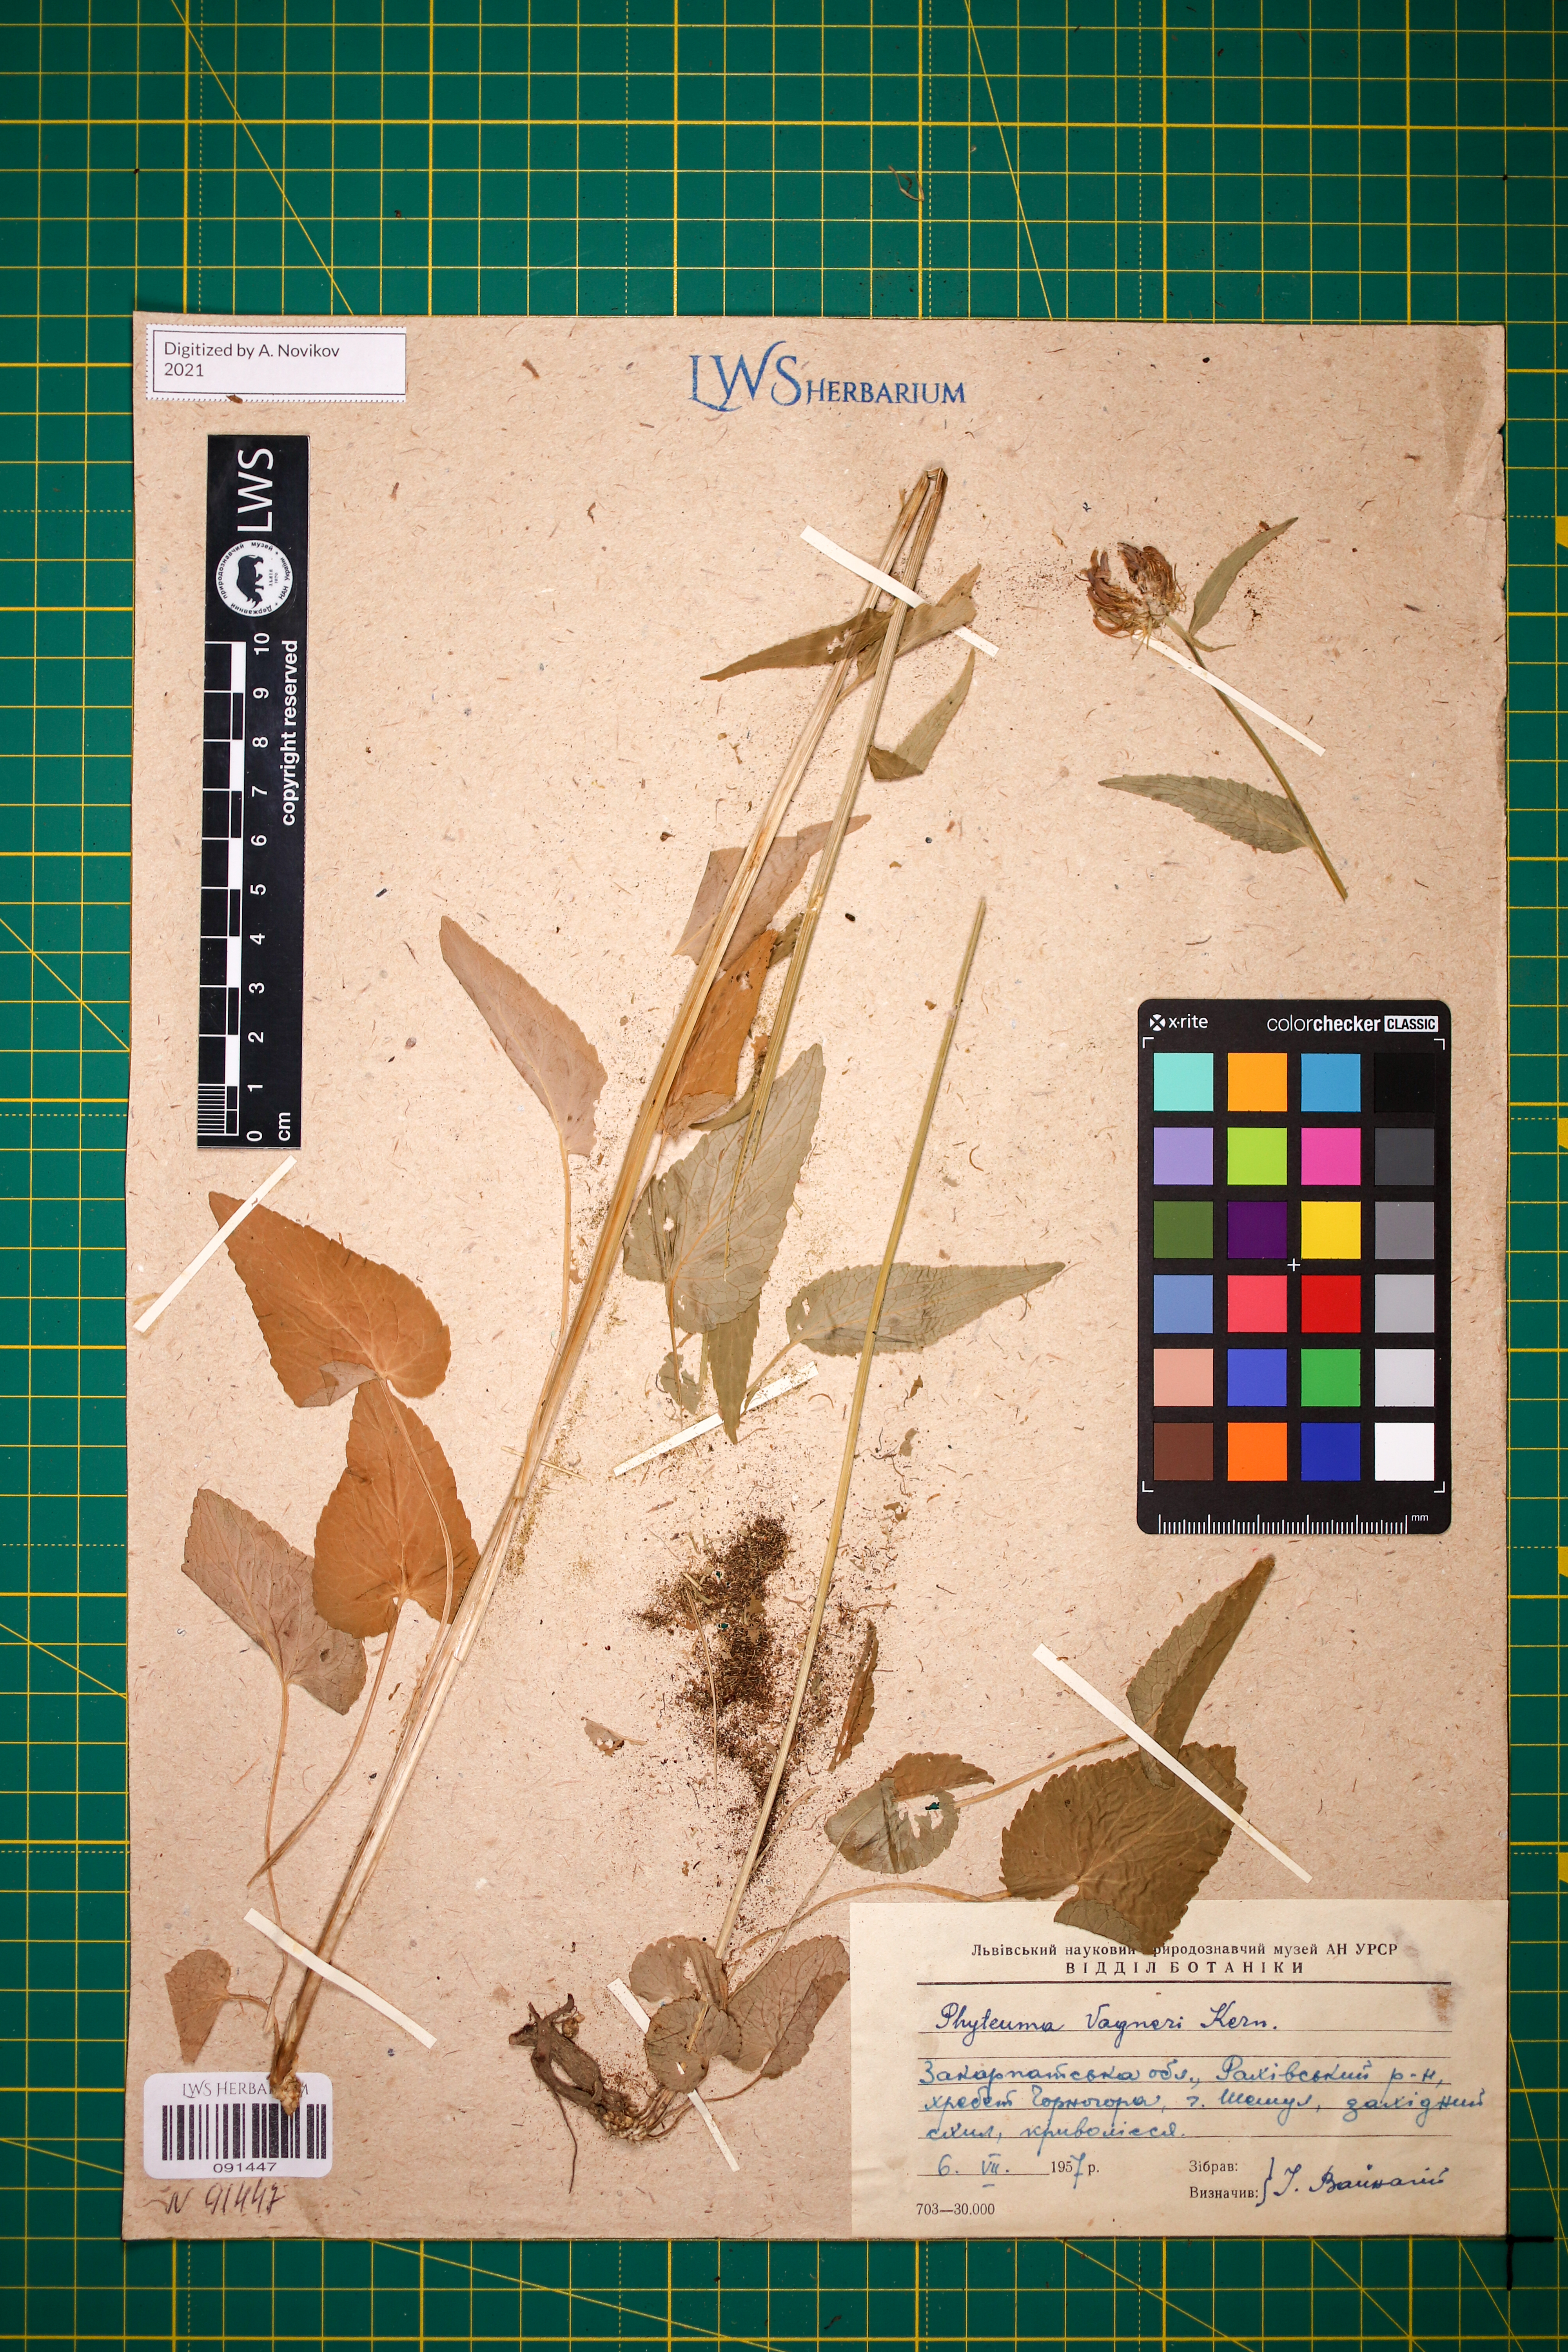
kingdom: Plantae
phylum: Tracheophyta
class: Magnoliopsida
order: Asterales
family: Campanulaceae
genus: Phyteuma
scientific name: Phyteuma vagneri
